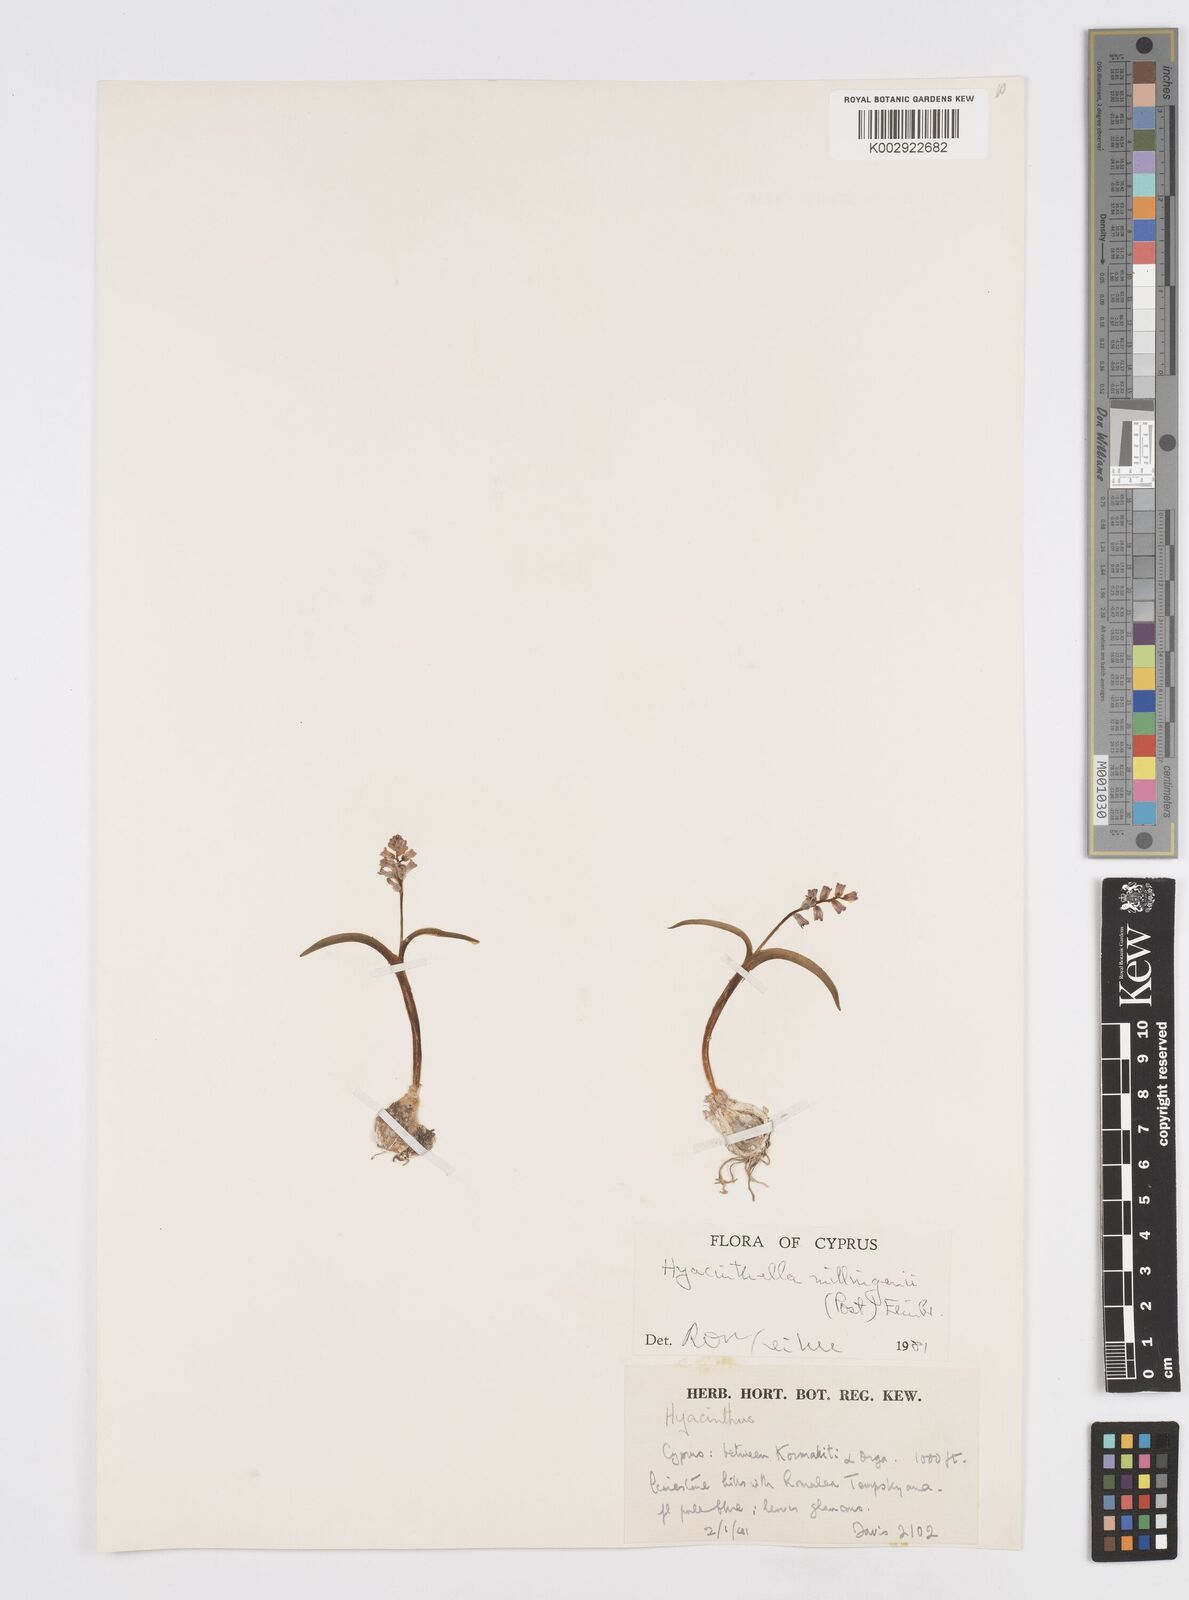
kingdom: Plantae
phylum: Tracheophyta
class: Liliopsida
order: Asparagales
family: Asparagaceae
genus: Hyacinthella
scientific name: Hyacinthella millingenii
